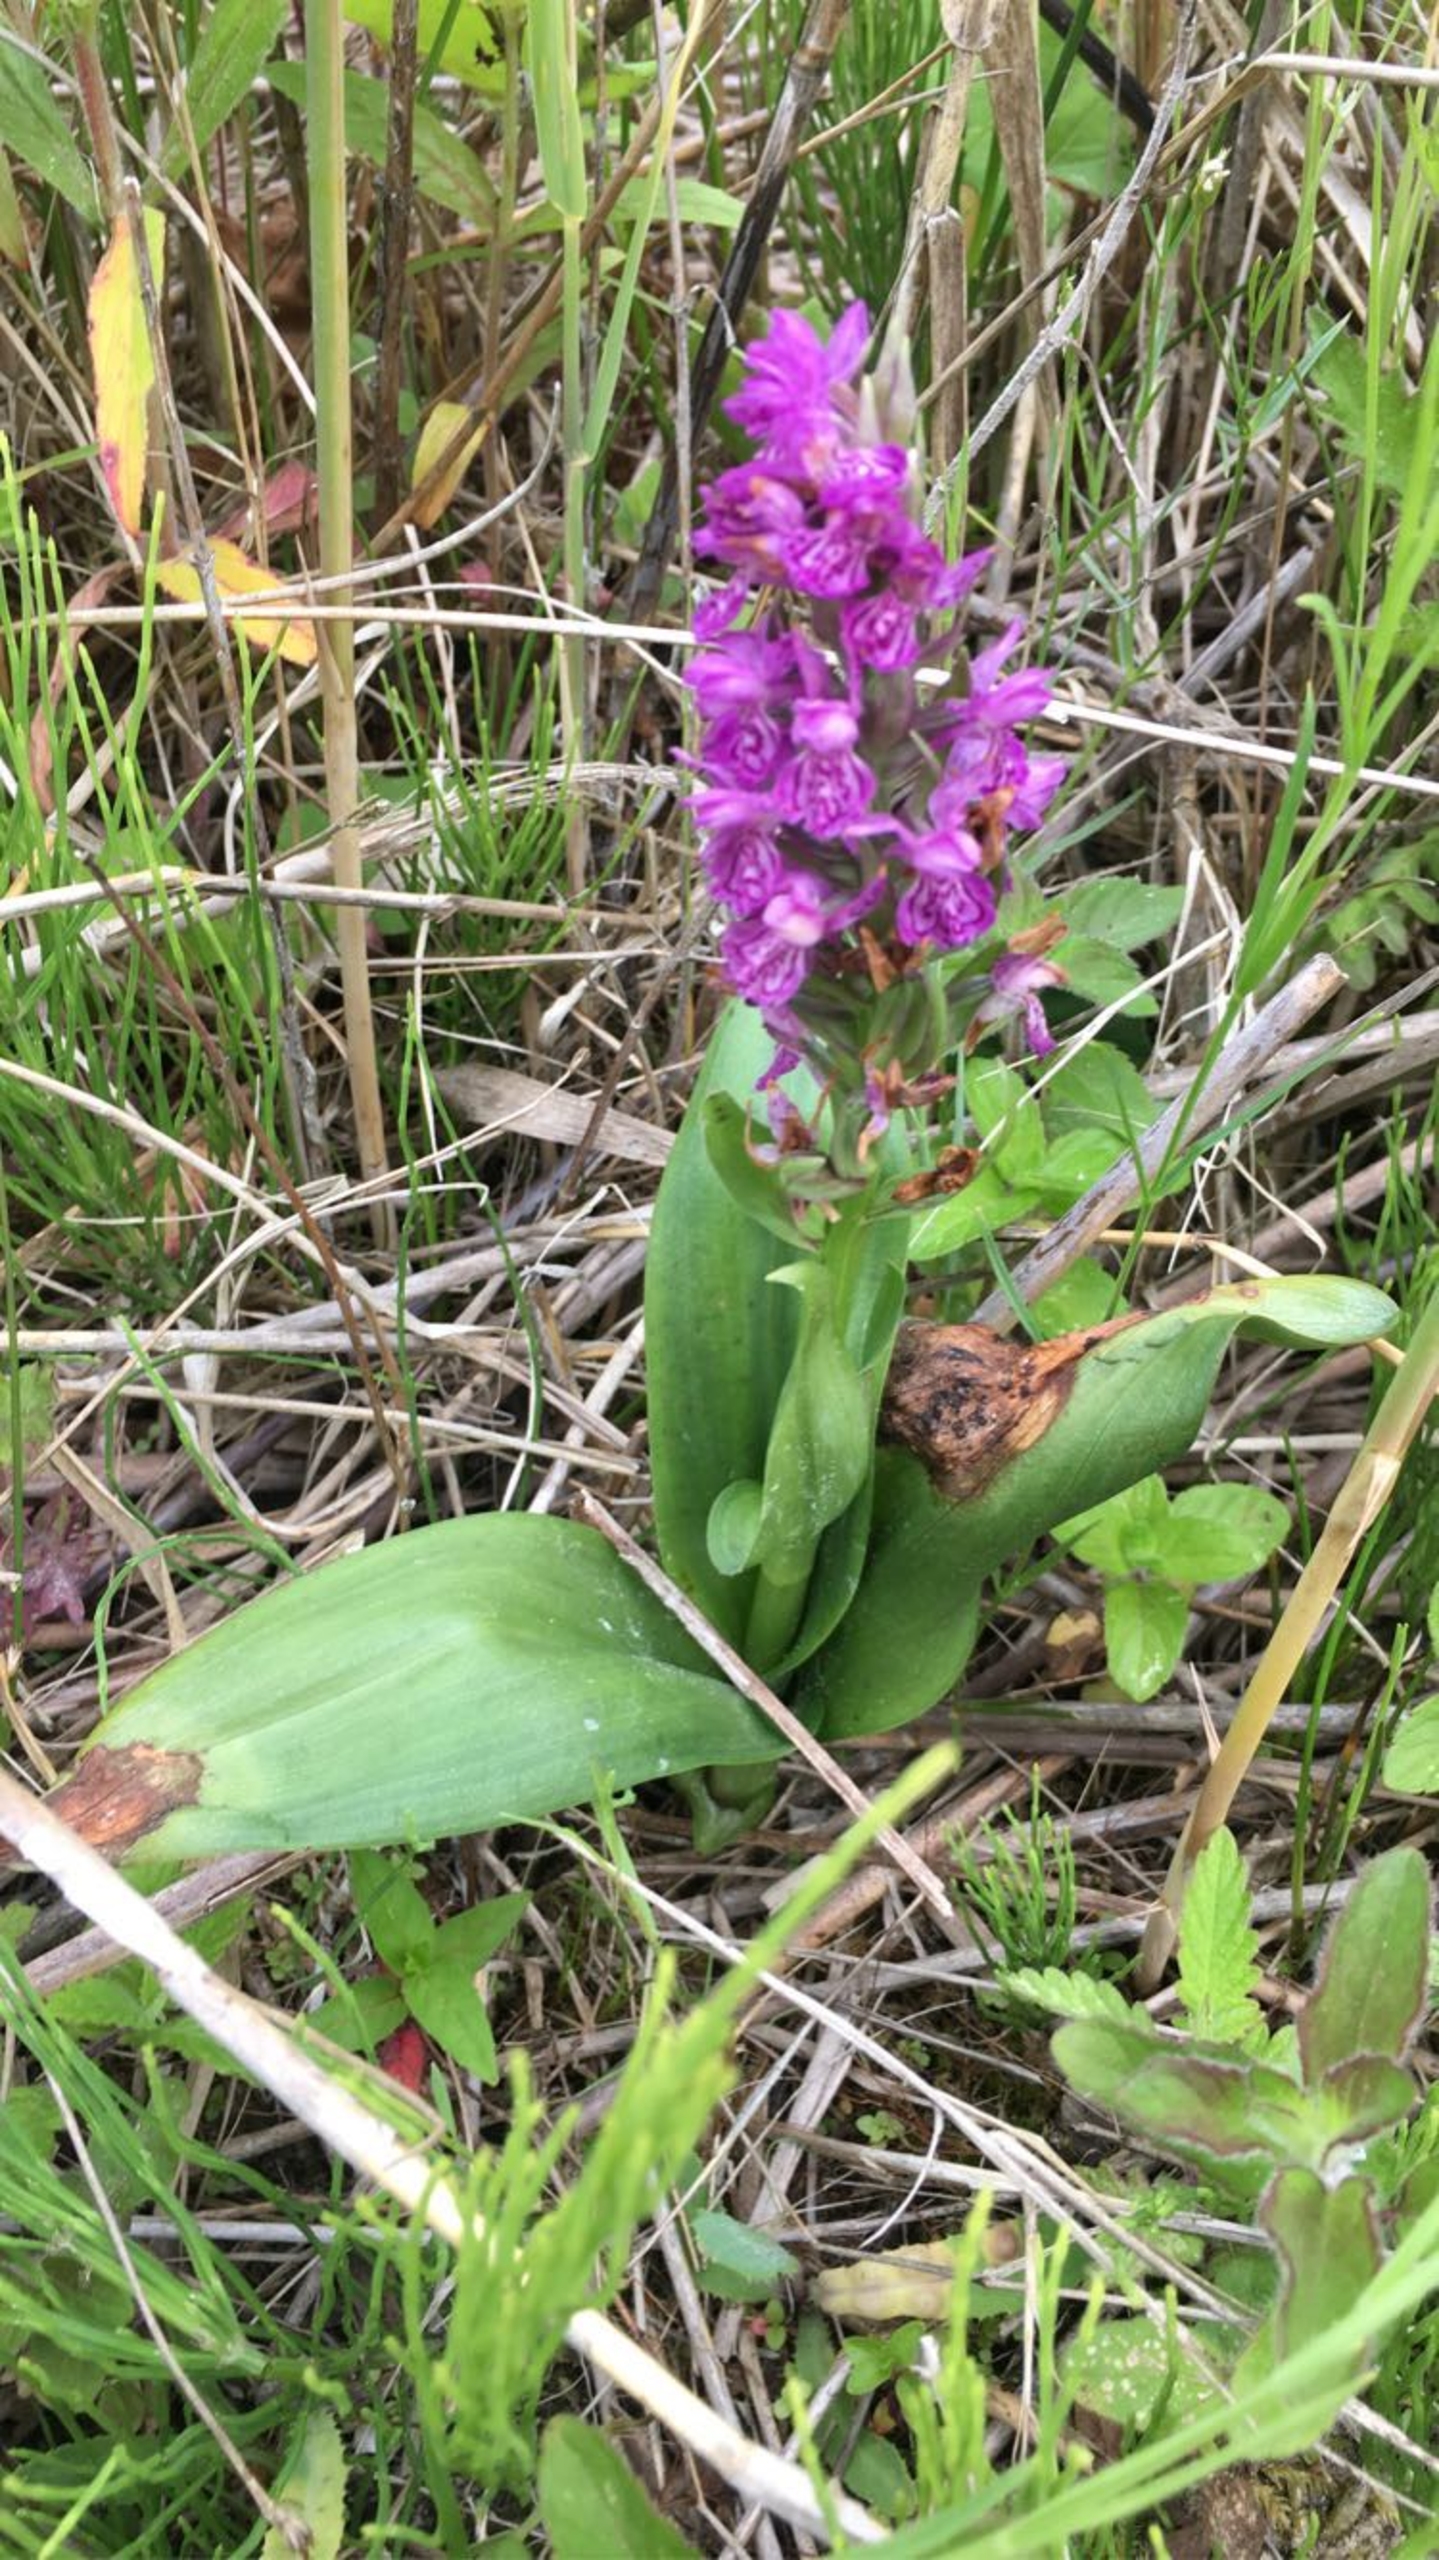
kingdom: Plantae
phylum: Tracheophyta
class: Liliopsida
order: Asparagales
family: Orchidaceae
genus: Dactylorhiza
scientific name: Dactylorhiza majalis
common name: Purpur-gøgeurt
